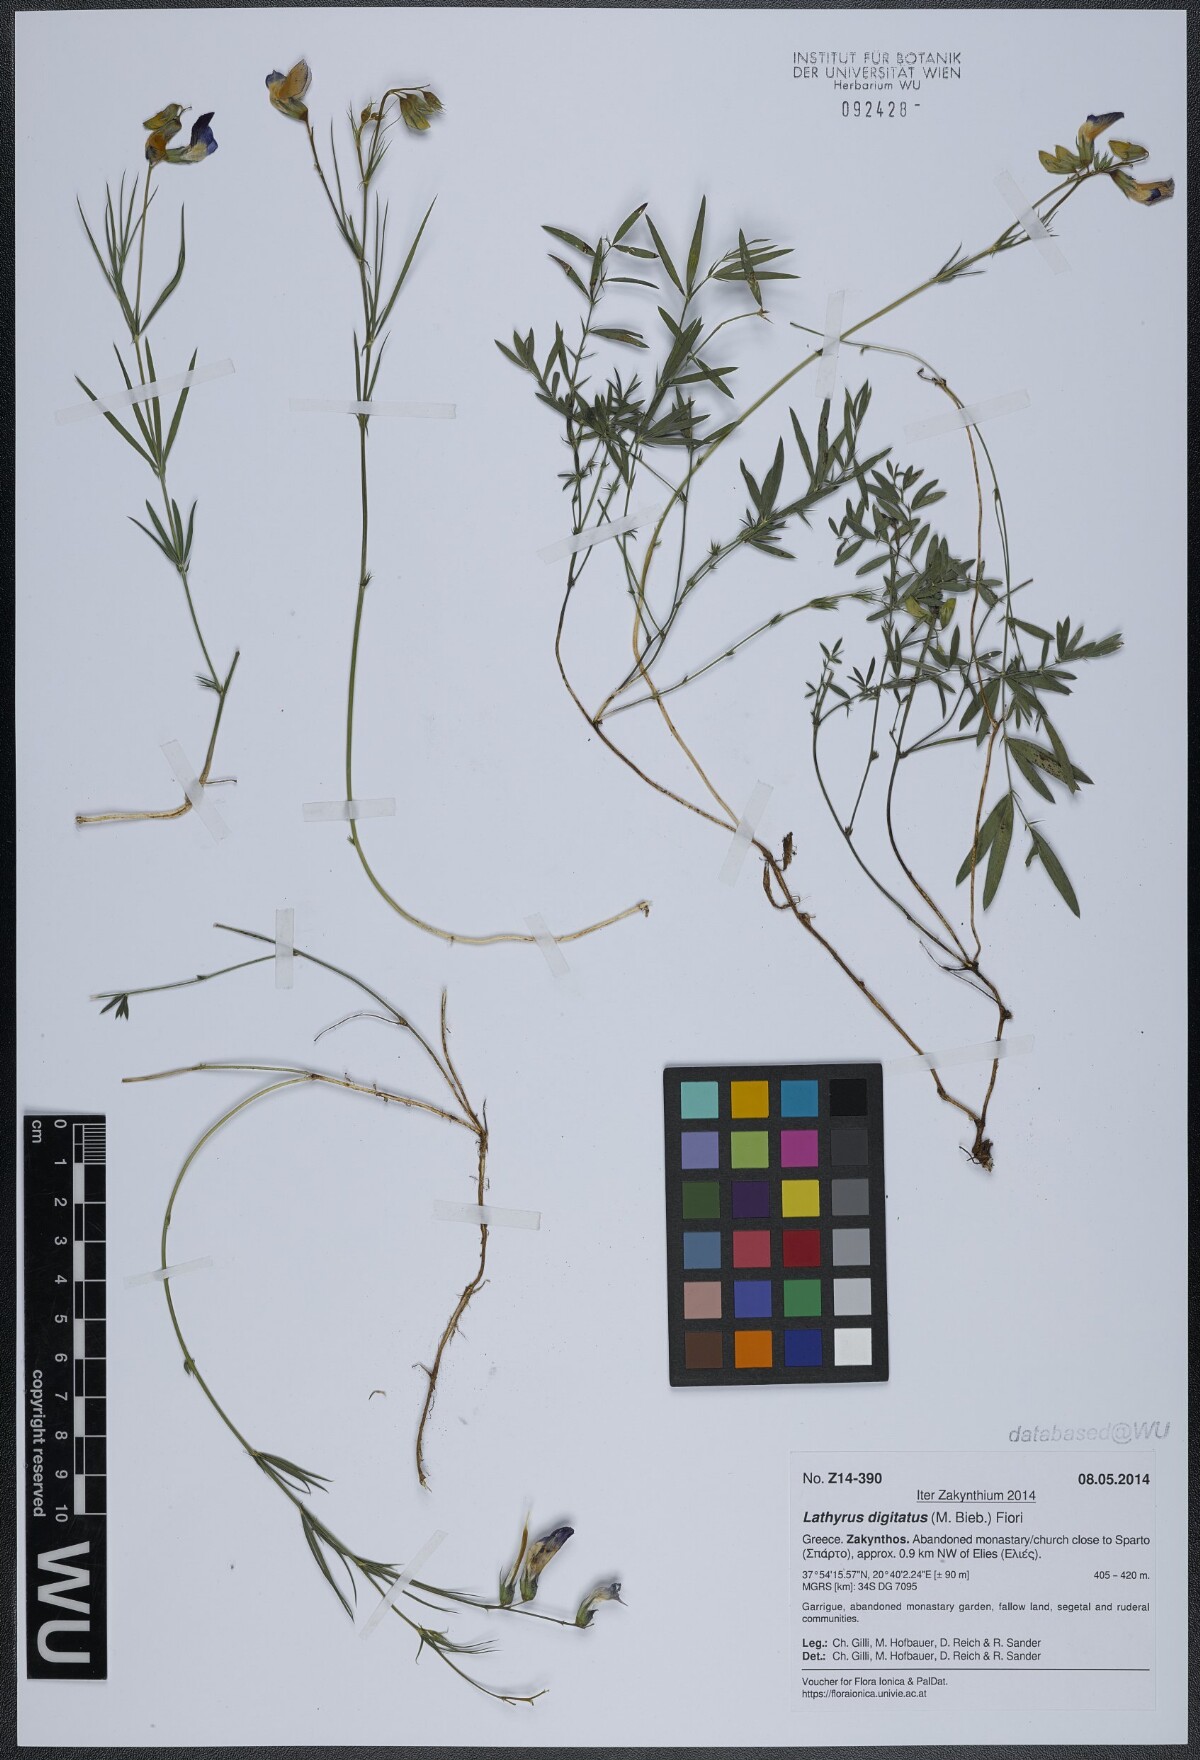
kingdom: Plantae
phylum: Tracheophyta
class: Magnoliopsida
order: Fabales
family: Fabaceae
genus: Lathyrus
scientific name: Lathyrus digitatus
